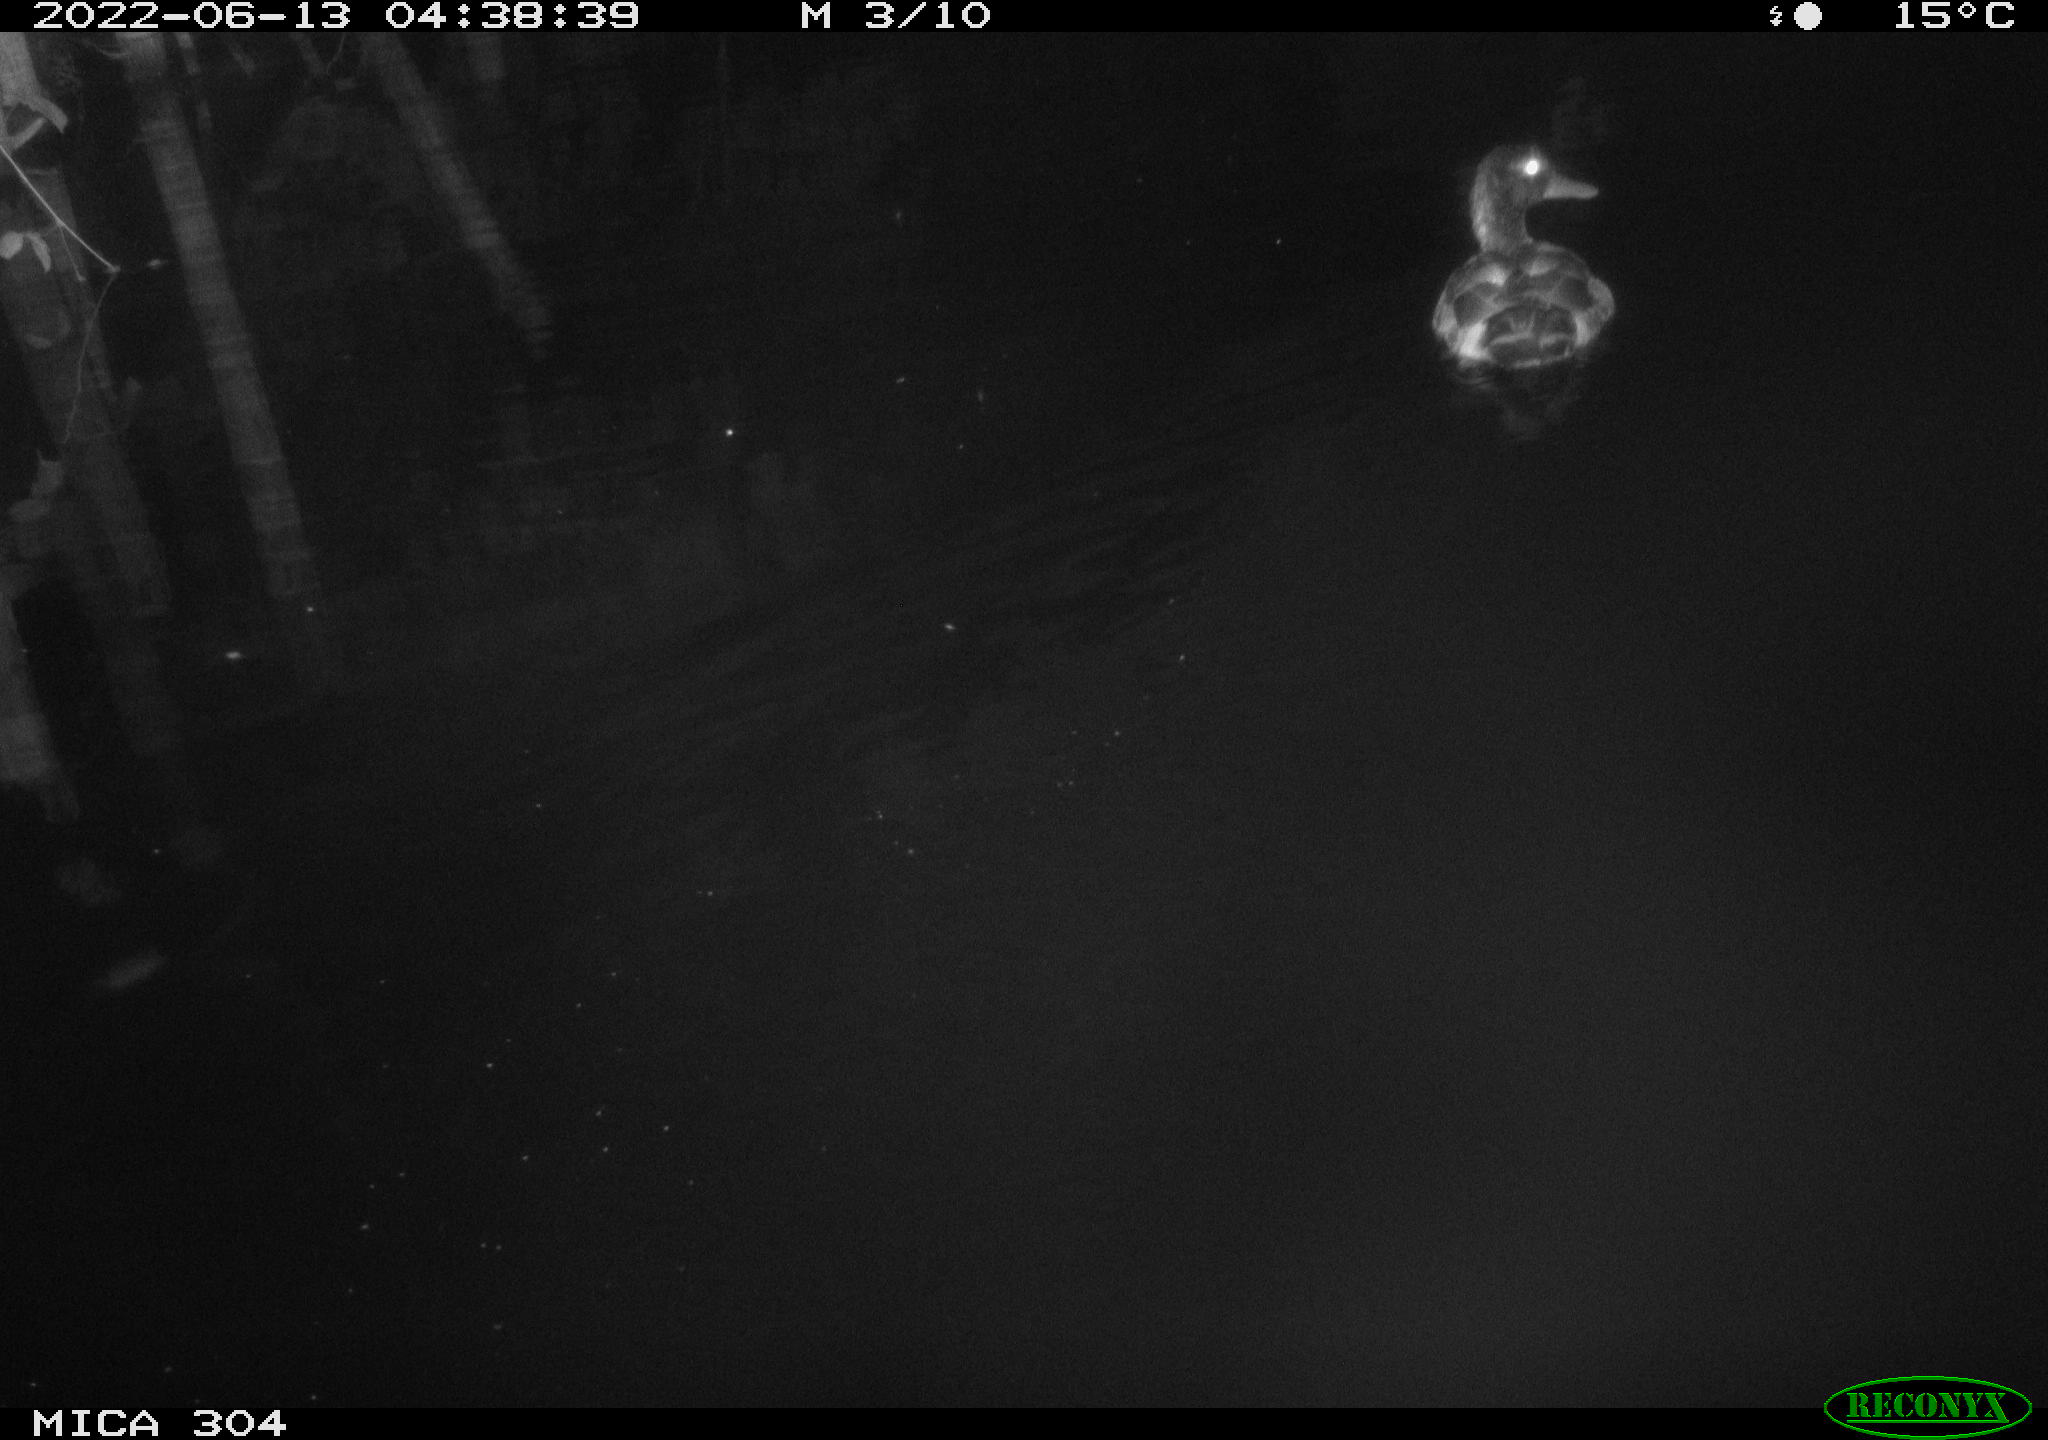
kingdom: Animalia
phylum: Chordata
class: Aves
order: Anseriformes
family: Anatidae
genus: Anas
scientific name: Anas platyrhynchos
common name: Mallard
